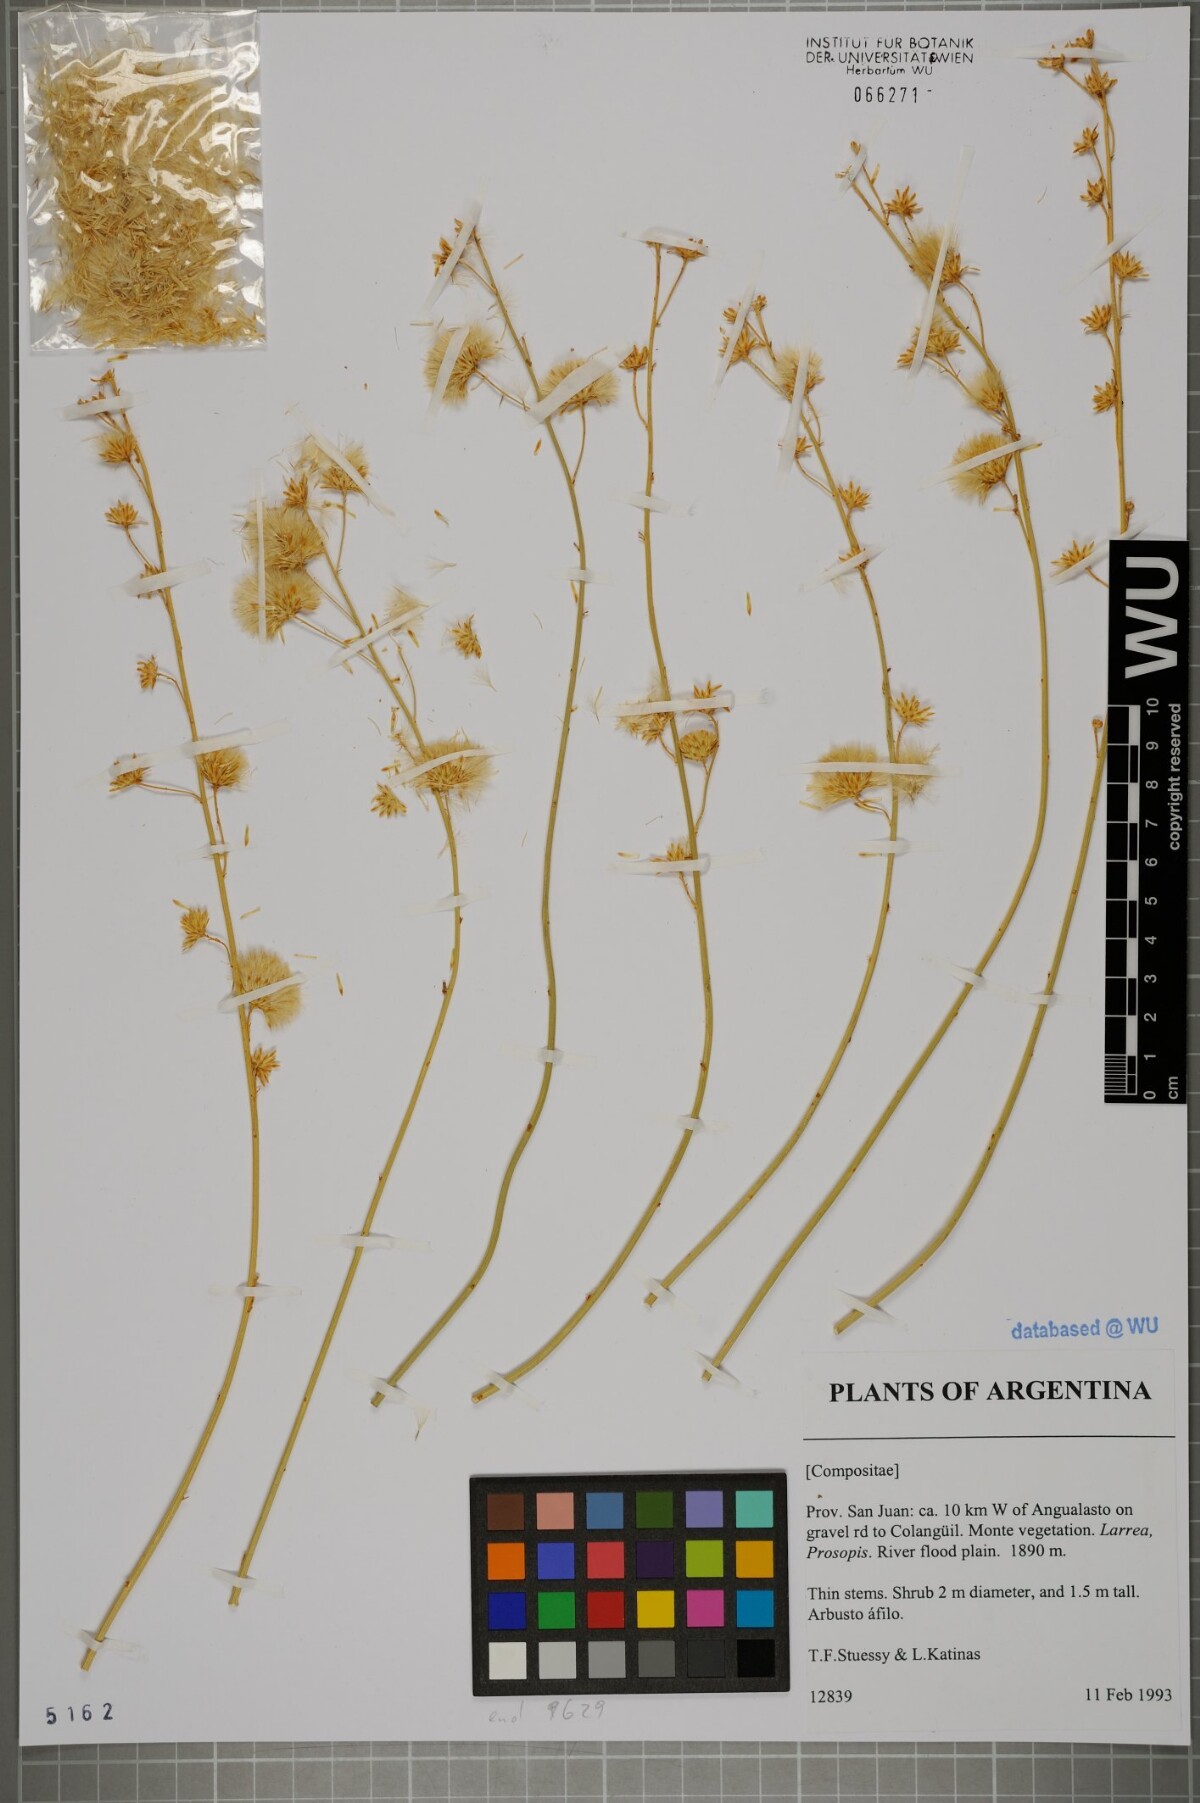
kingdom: Plantae
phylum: Tracheophyta
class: Magnoliopsida
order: Asterales
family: Asteraceae
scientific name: Asteraceae
